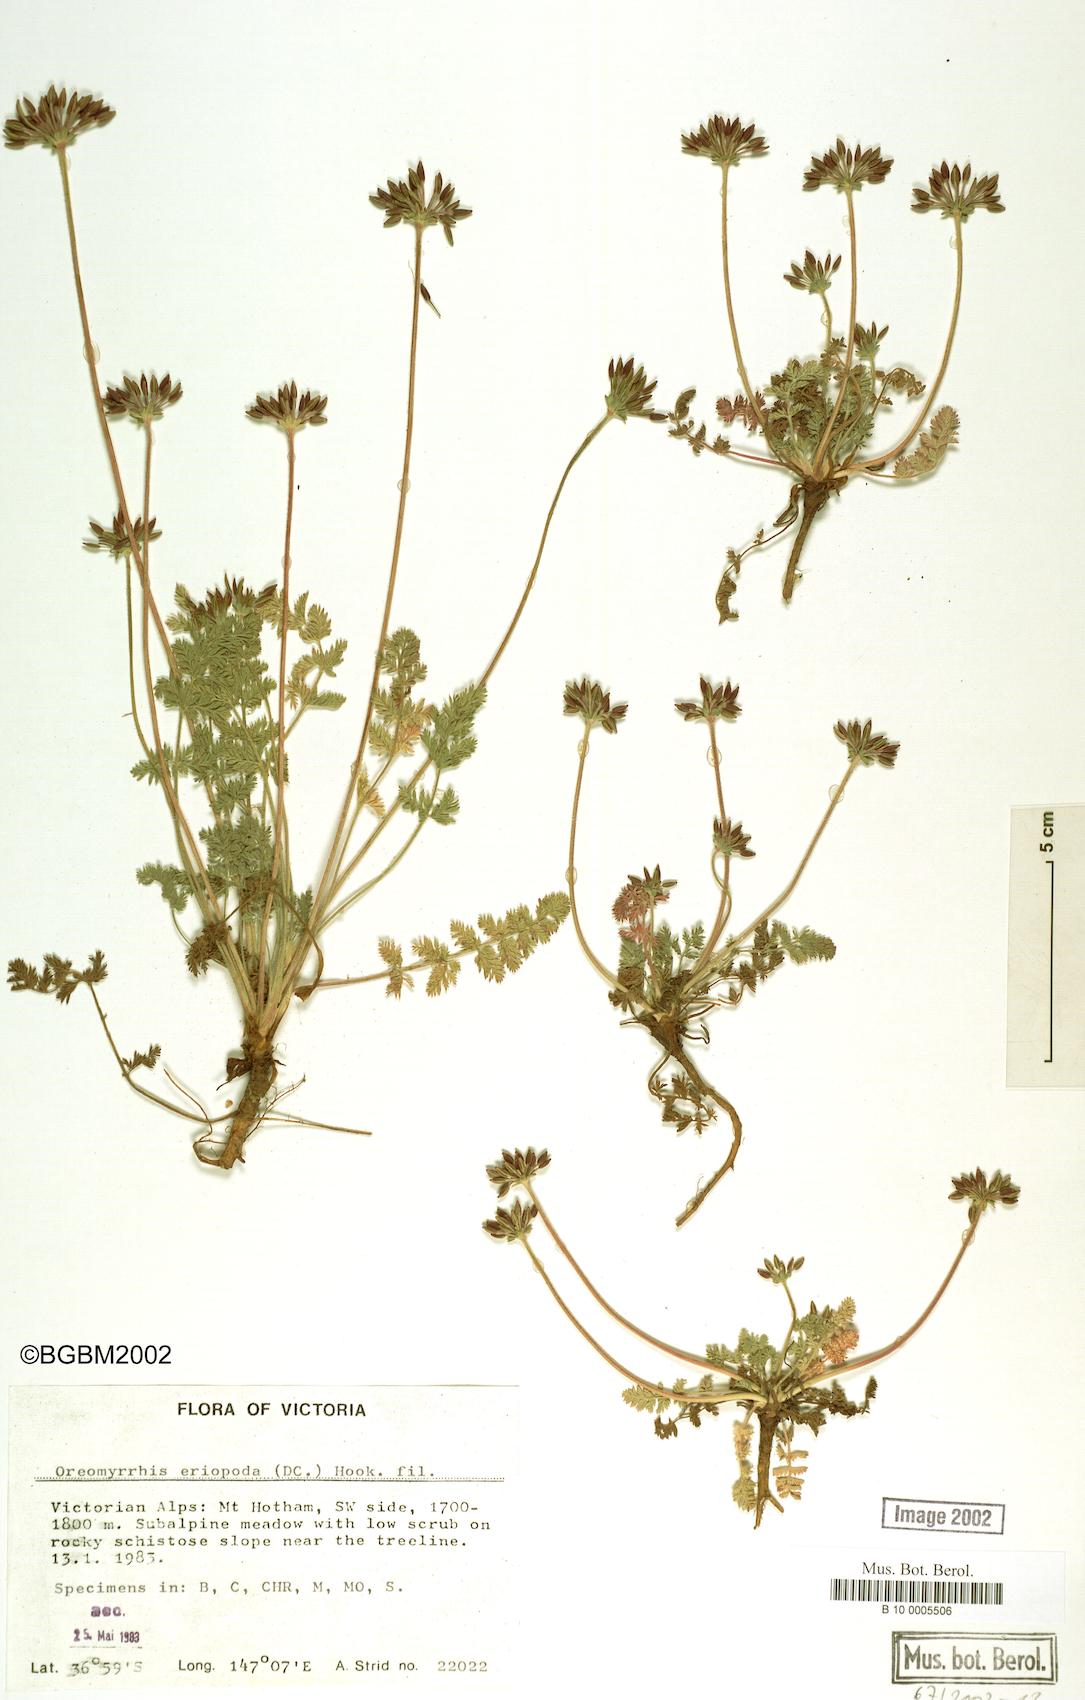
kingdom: Plantae
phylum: Tracheophyta
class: Magnoliopsida
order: Apiales
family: Apiaceae
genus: Chaerophyllum
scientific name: Chaerophyllum eriopodum
